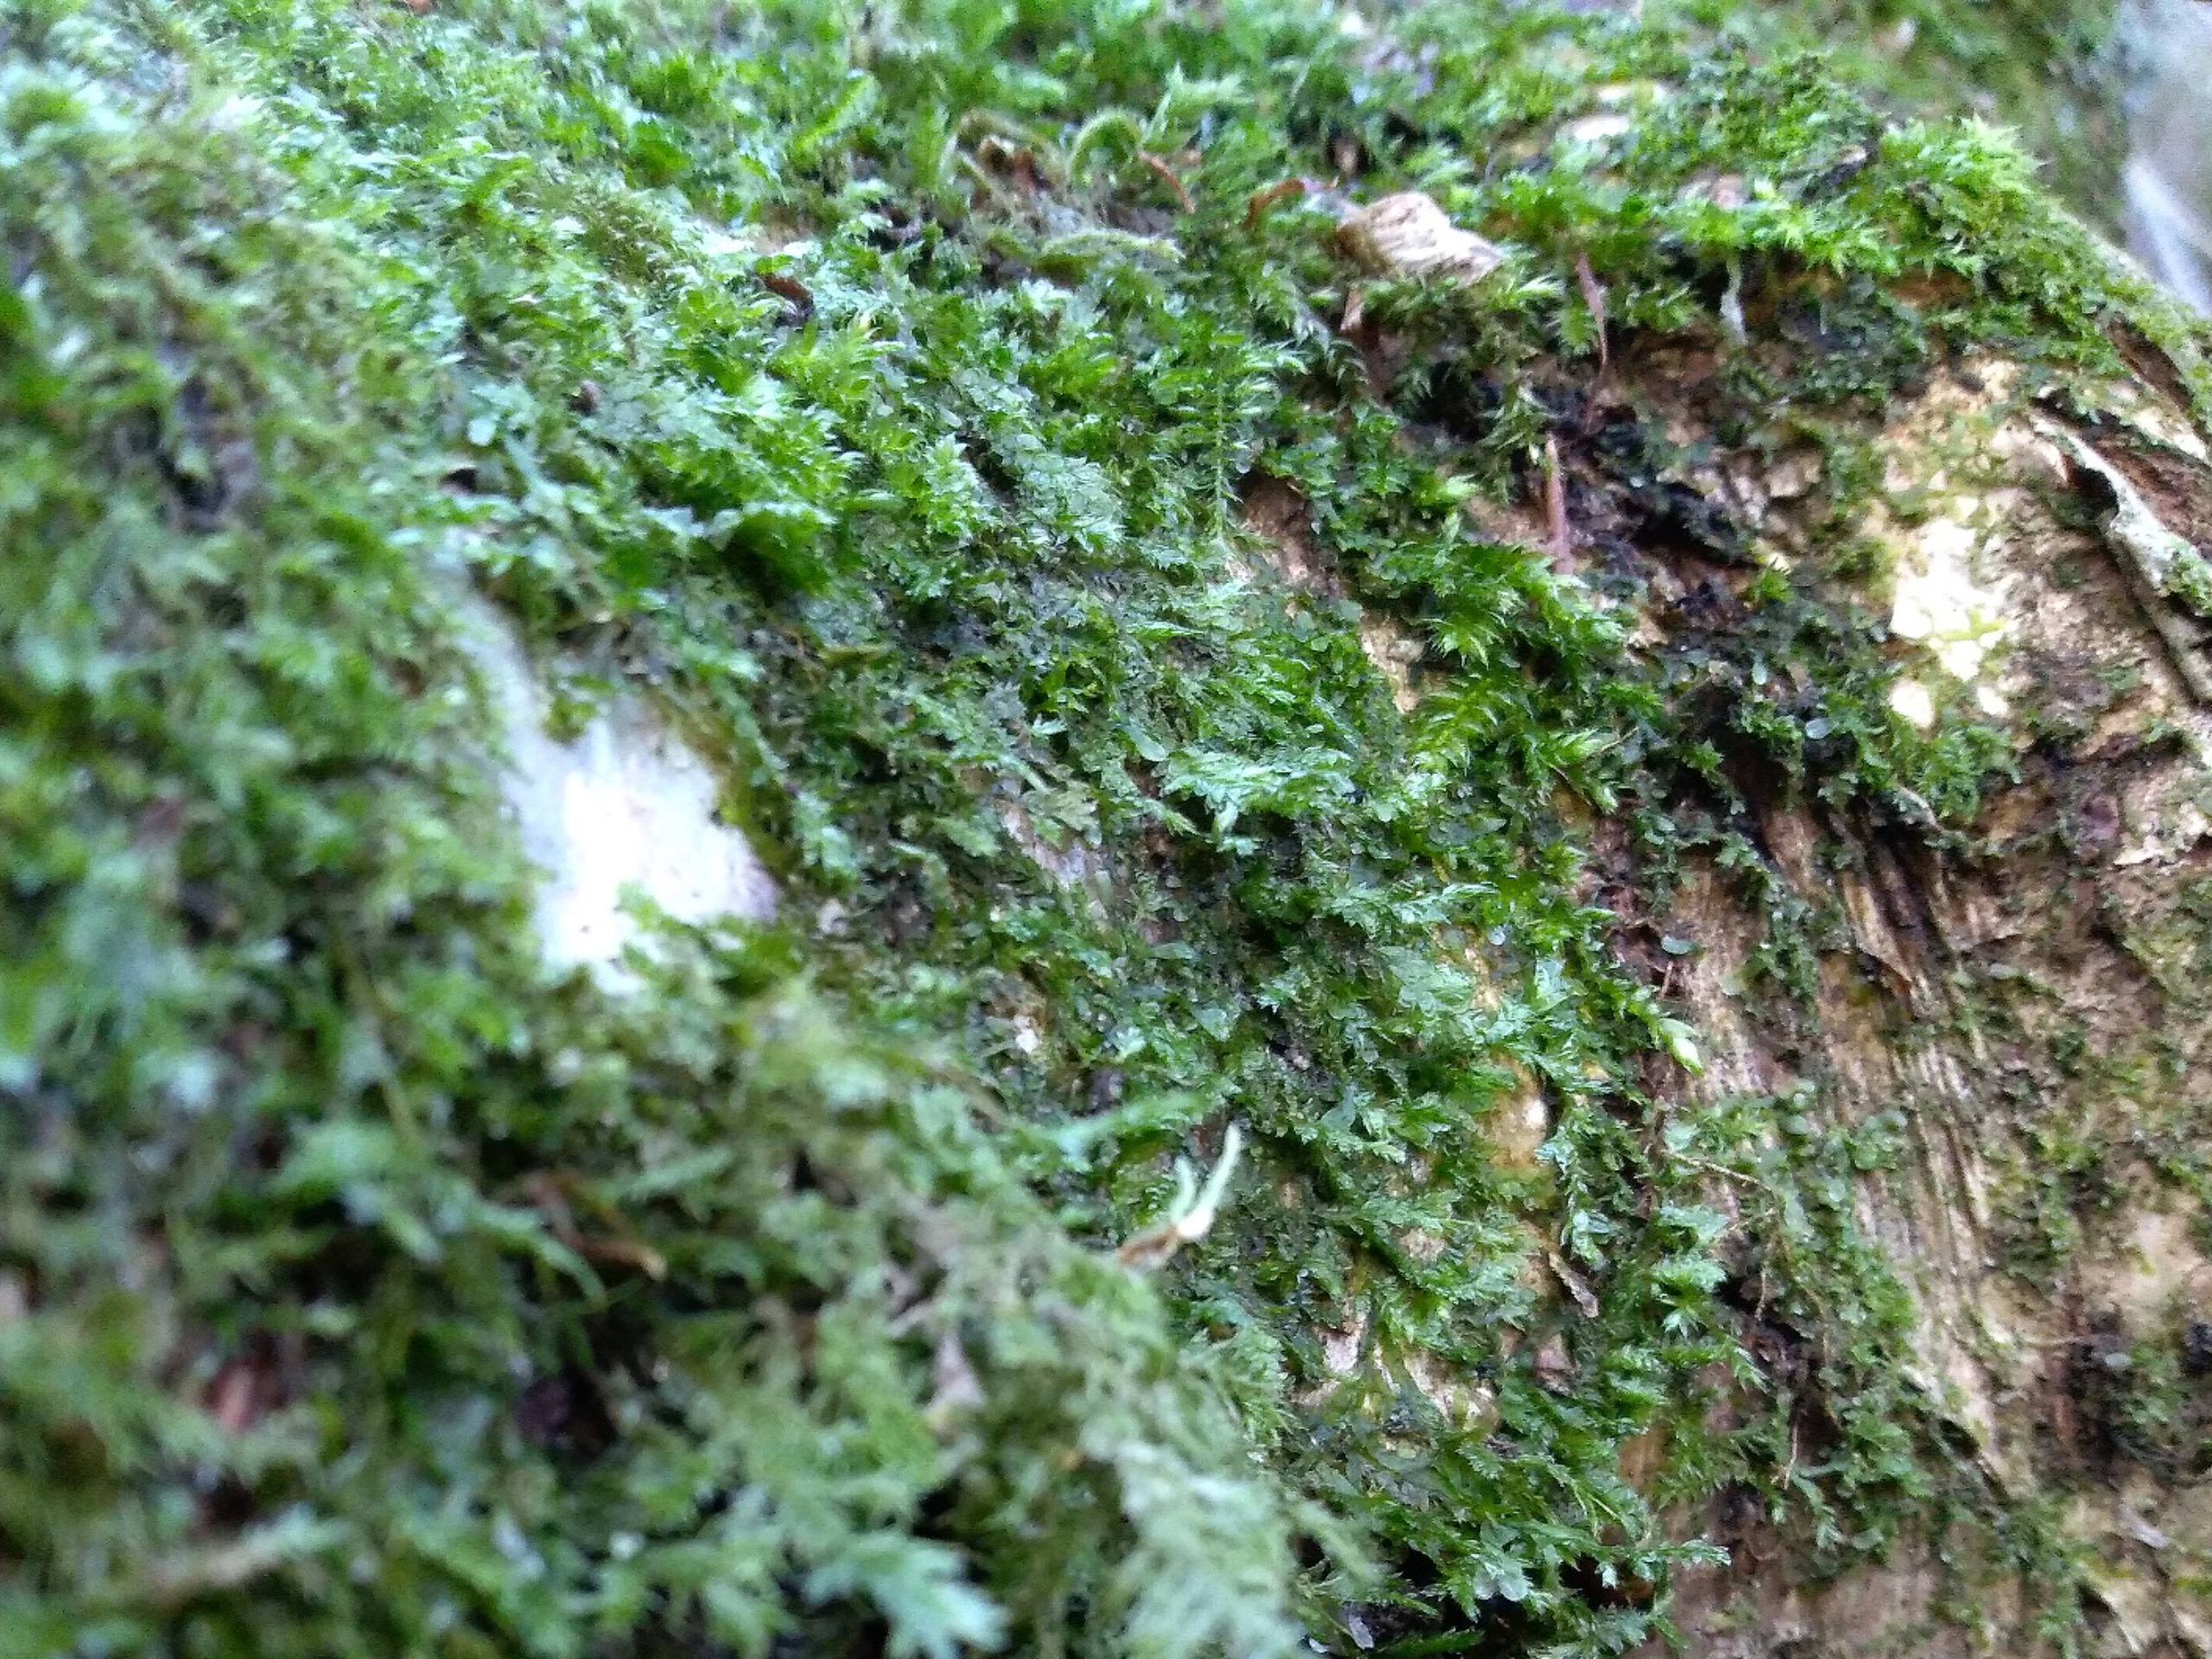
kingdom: Plantae
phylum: Bryophyta
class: Bryopsida
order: Hypnales
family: Neckeraceae
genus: Neckera
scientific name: Neckera pumila
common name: Lav fladmos
